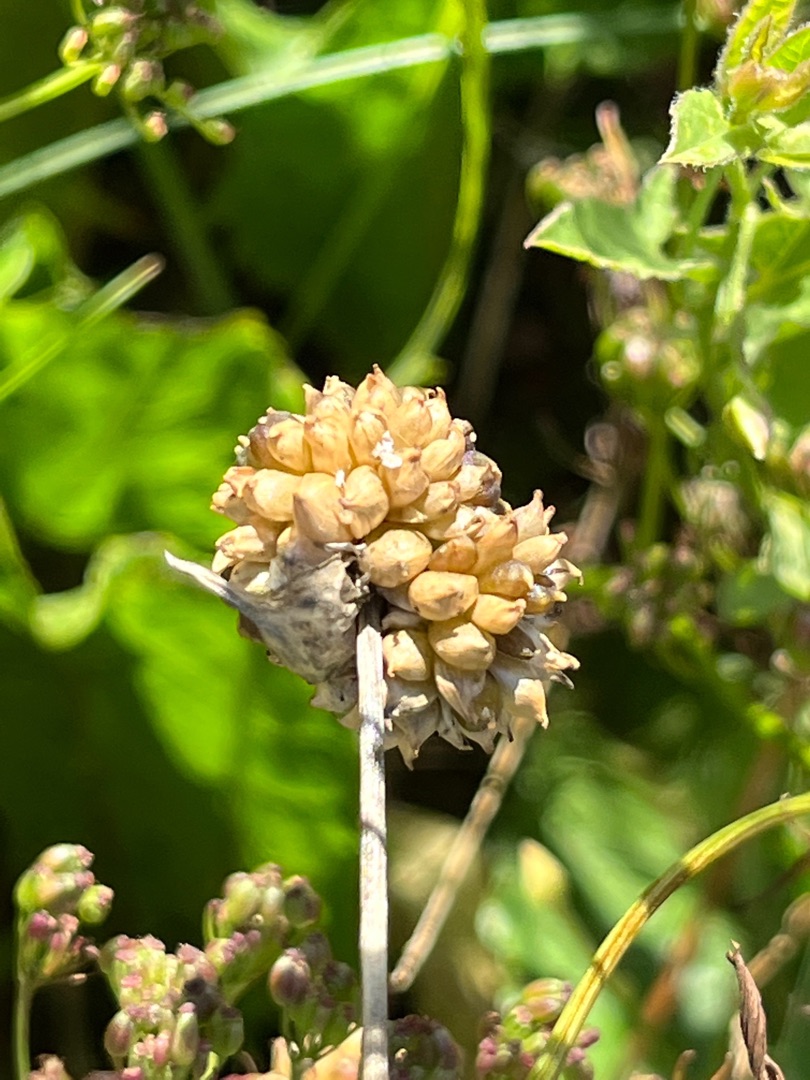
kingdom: Plantae
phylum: Tracheophyta
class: Liliopsida
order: Asparagales
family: Amaryllidaceae
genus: Allium
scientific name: Allium vineale
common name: Sand-løg
